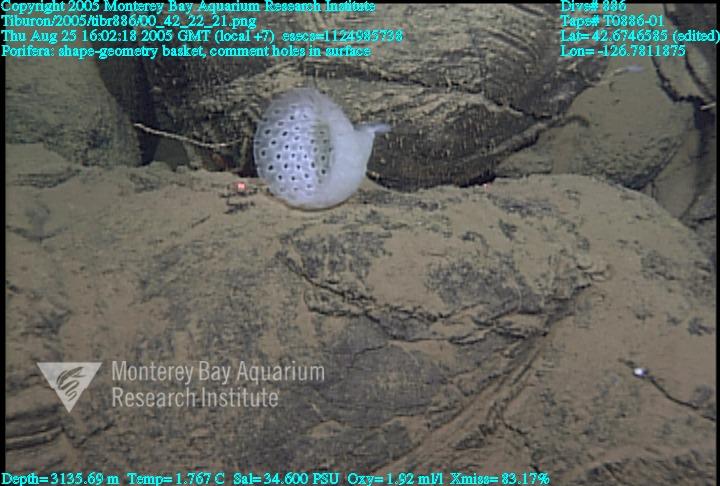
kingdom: Animalia
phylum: Porifera
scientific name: Porifera
